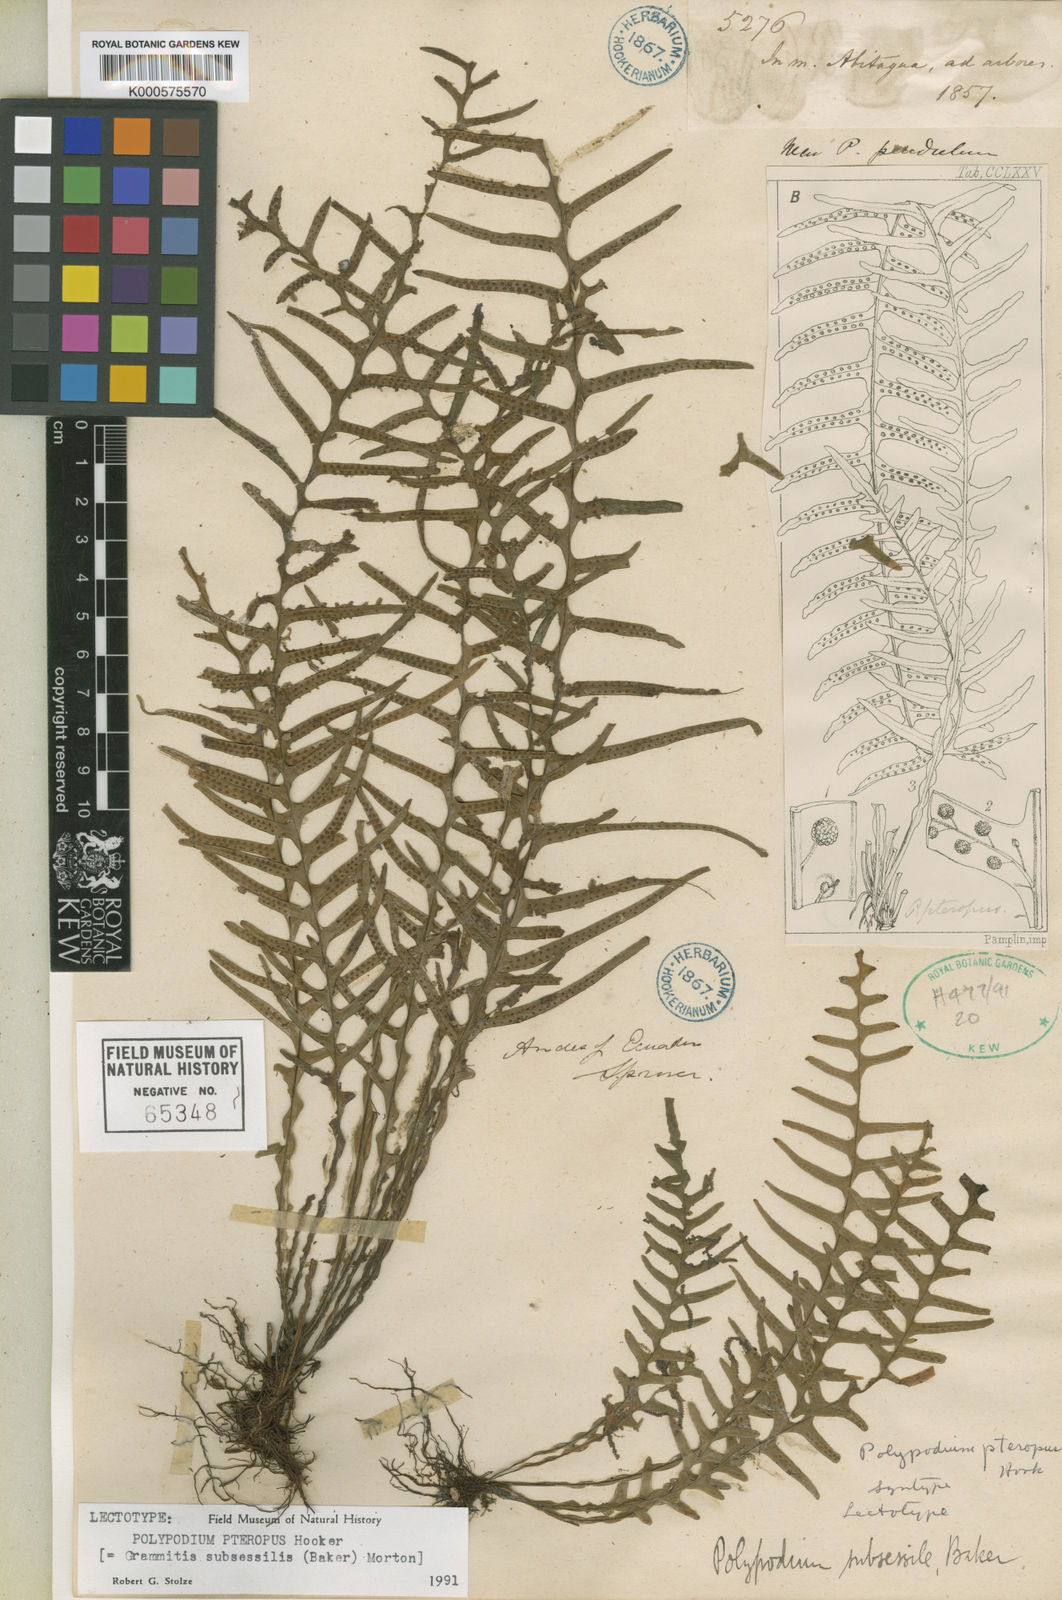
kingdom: Plantae
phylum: Tracheophyta
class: Polypodiopsida
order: Polypodiales
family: Polypodiaceae
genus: Lellingeria
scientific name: Lellingeria subsessilis
